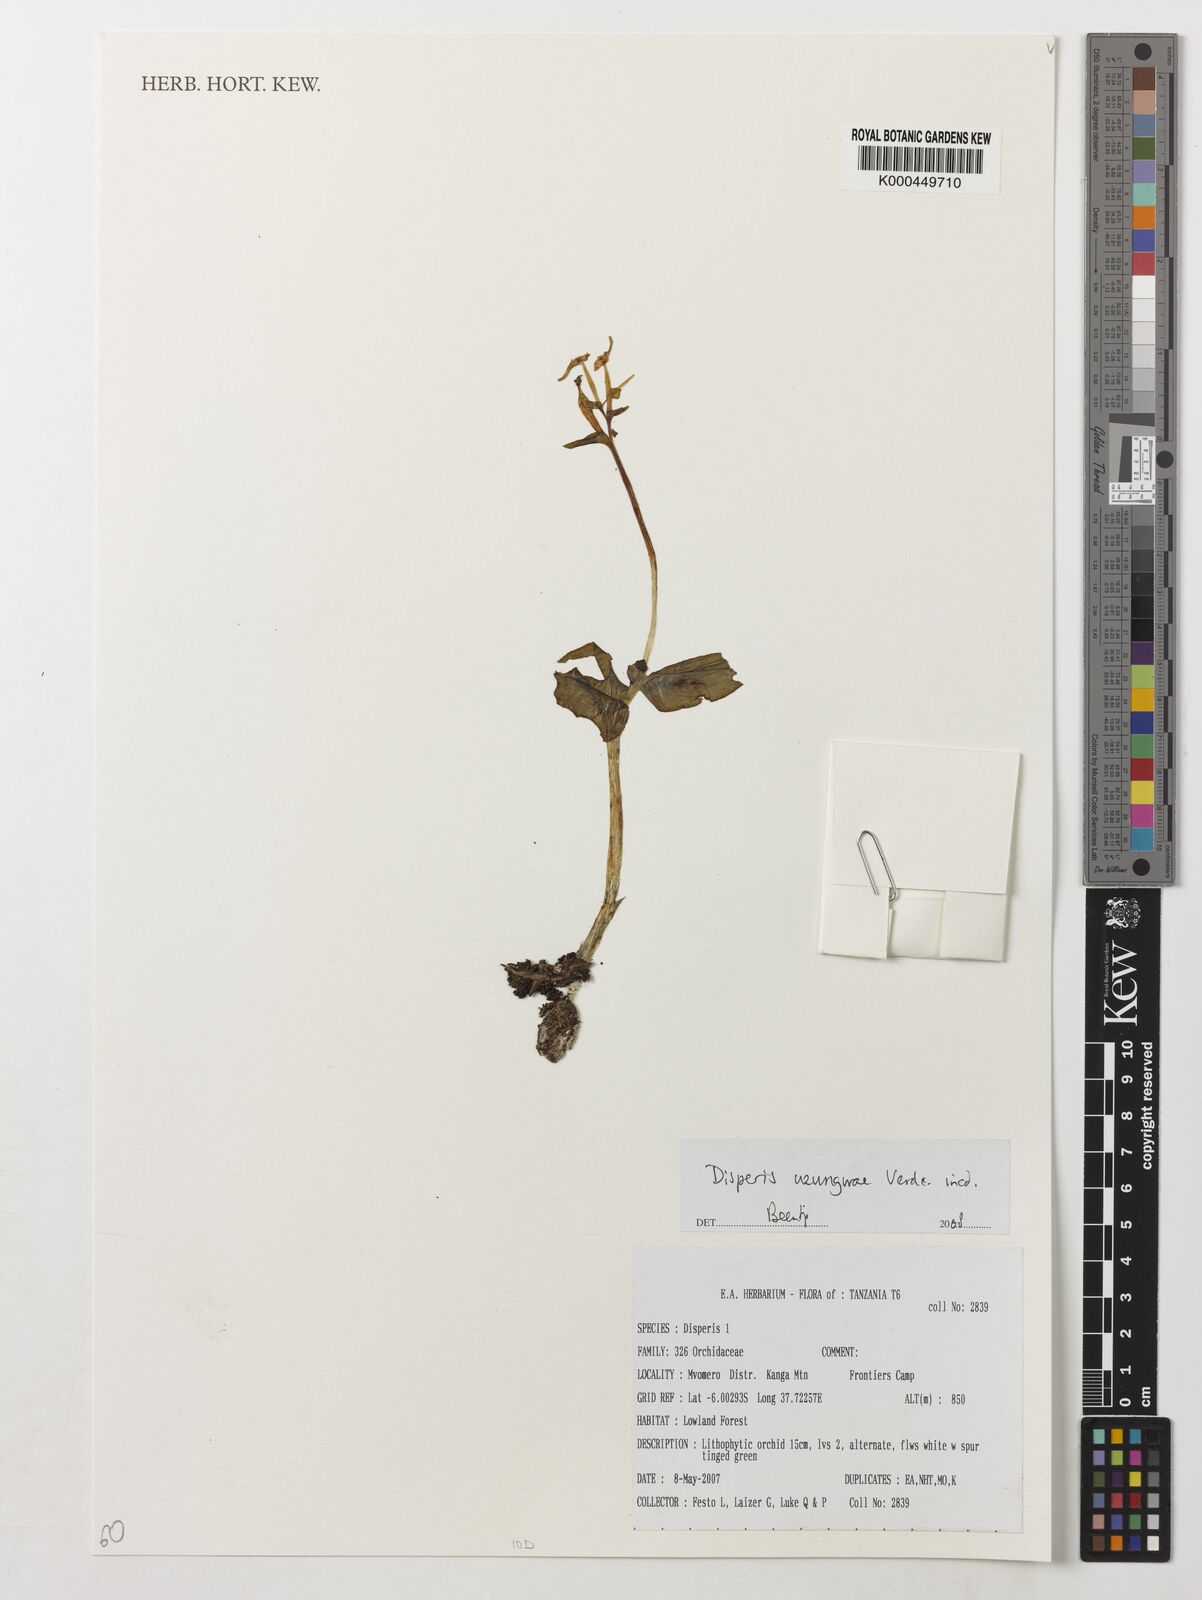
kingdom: Plantae
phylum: Tracheophyta
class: Liliopsida
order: Asparagales
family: Orchidaceae
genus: Disperis
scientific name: Disperis uzungwae
